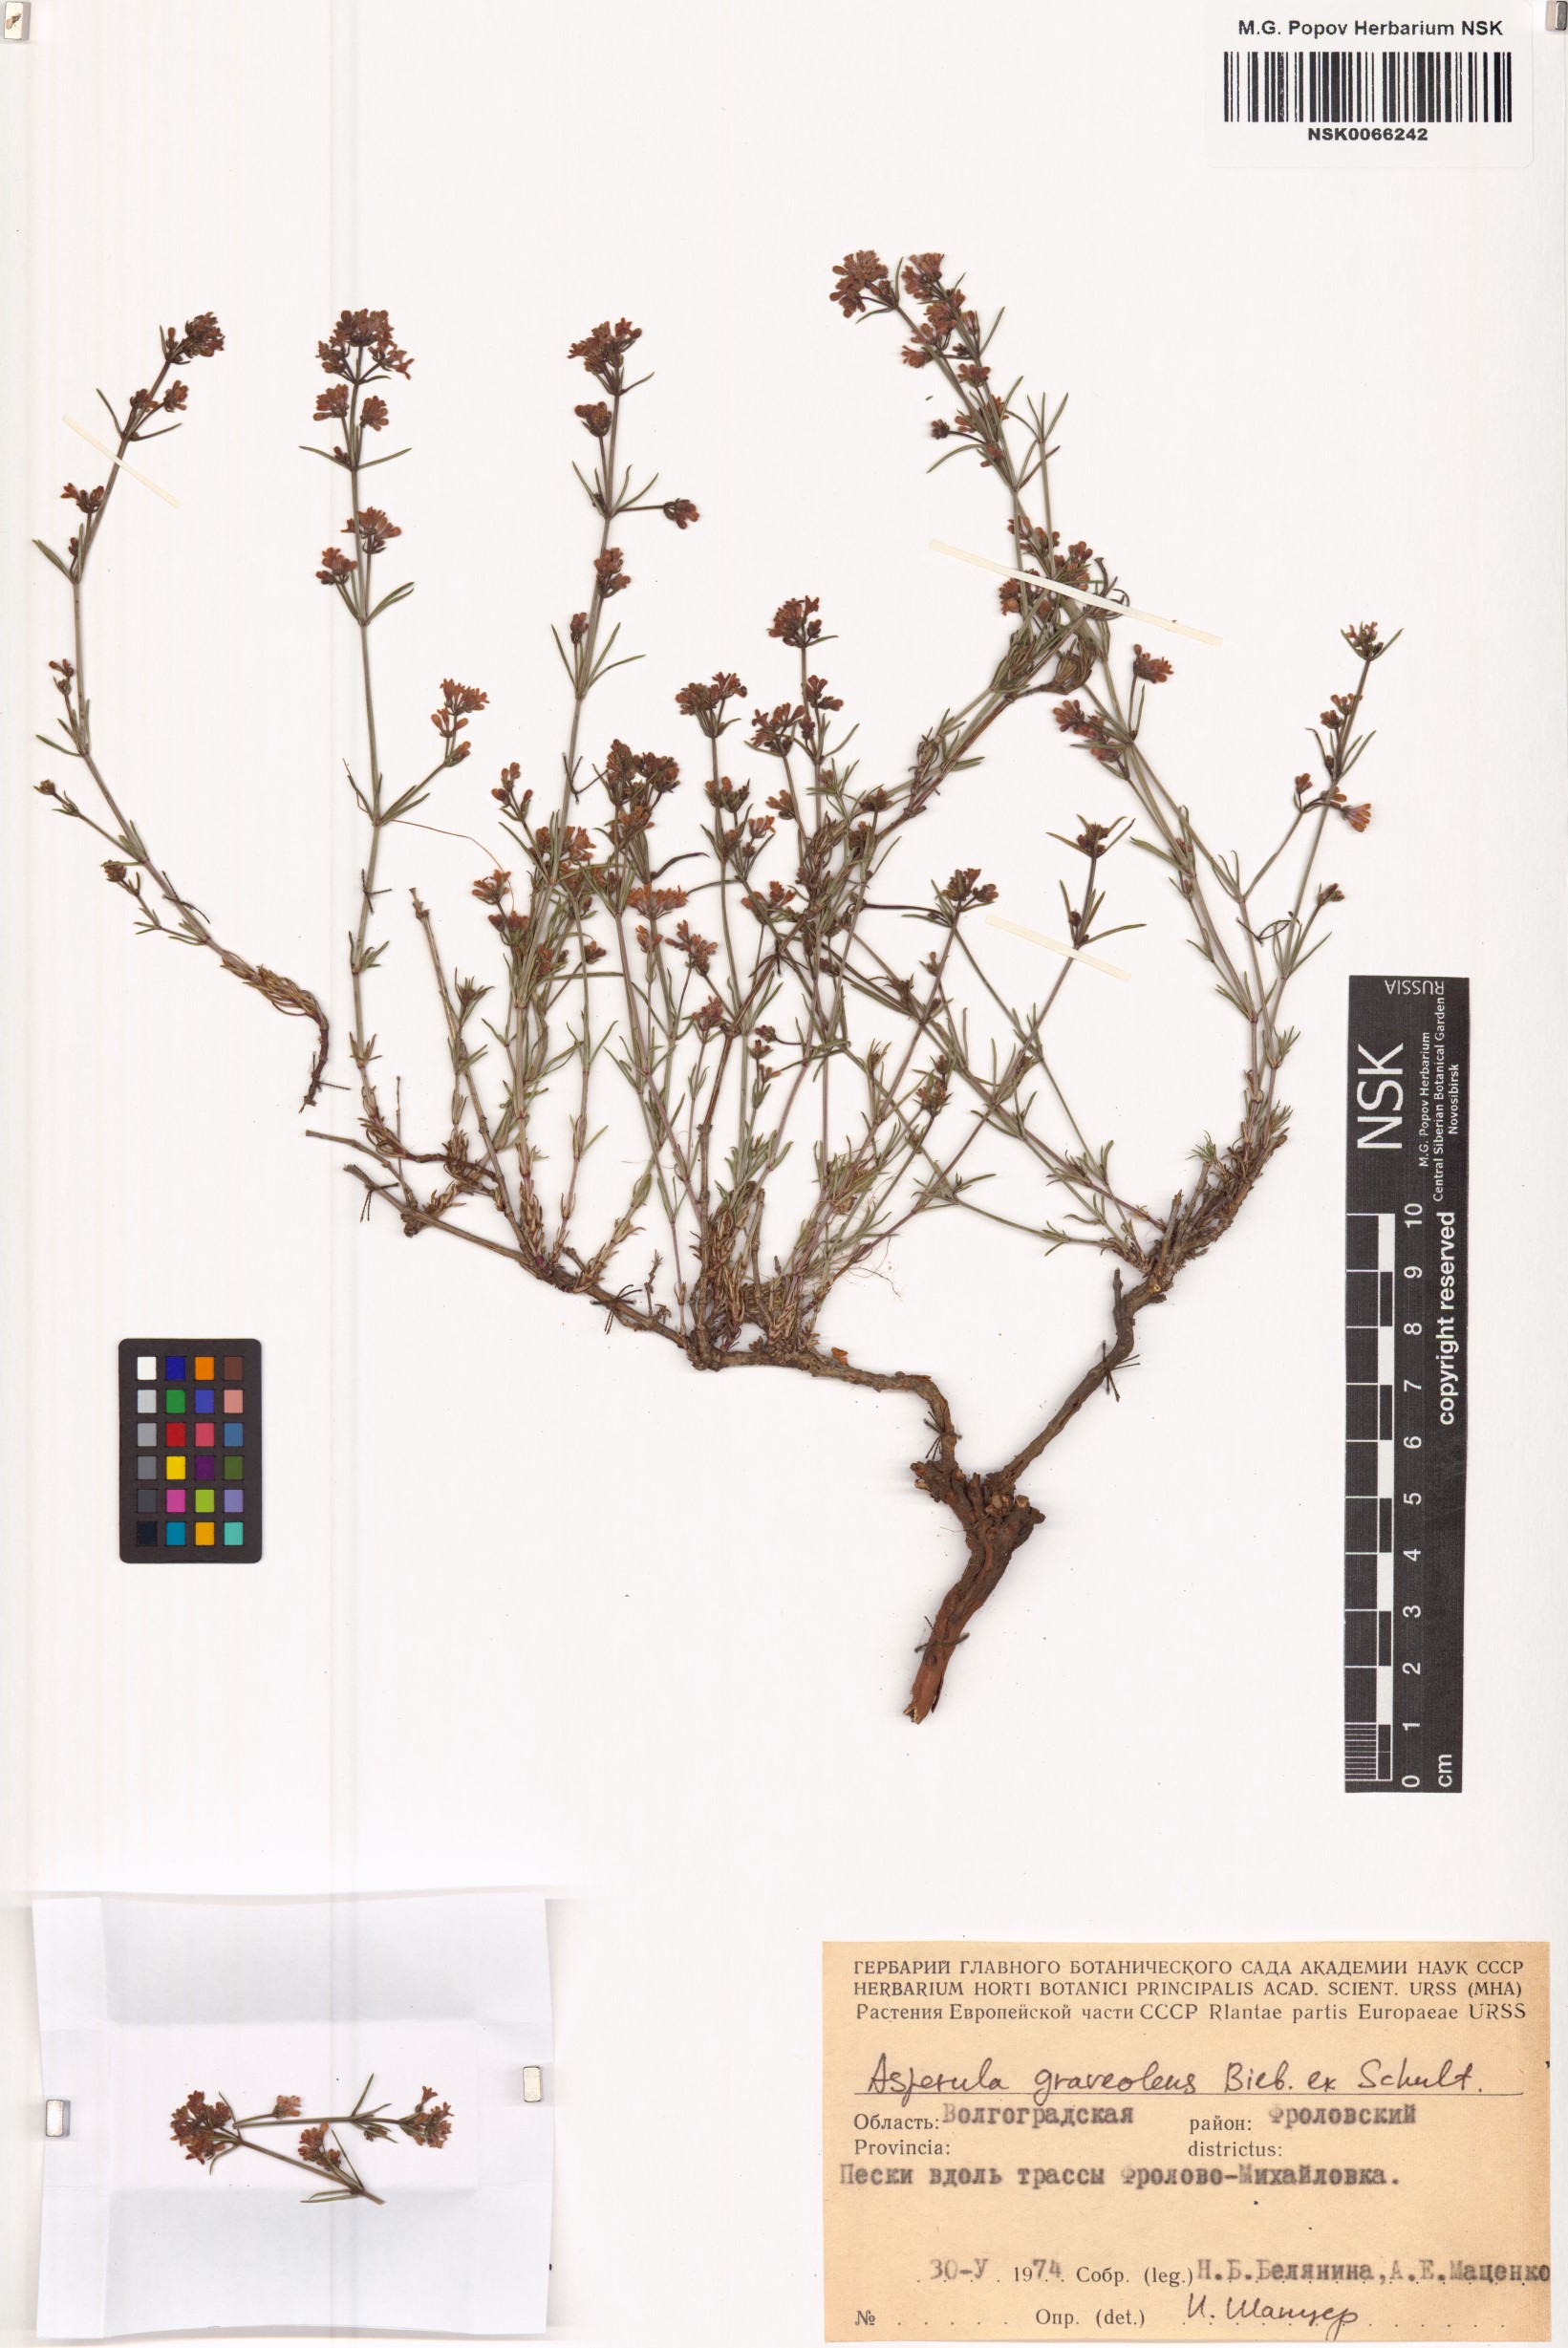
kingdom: Plantae
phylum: Tracheophyta
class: Magnoliopsida
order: Gentianales
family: Rubiaceae
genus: Cynanchica
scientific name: Cynanchica graveolens
